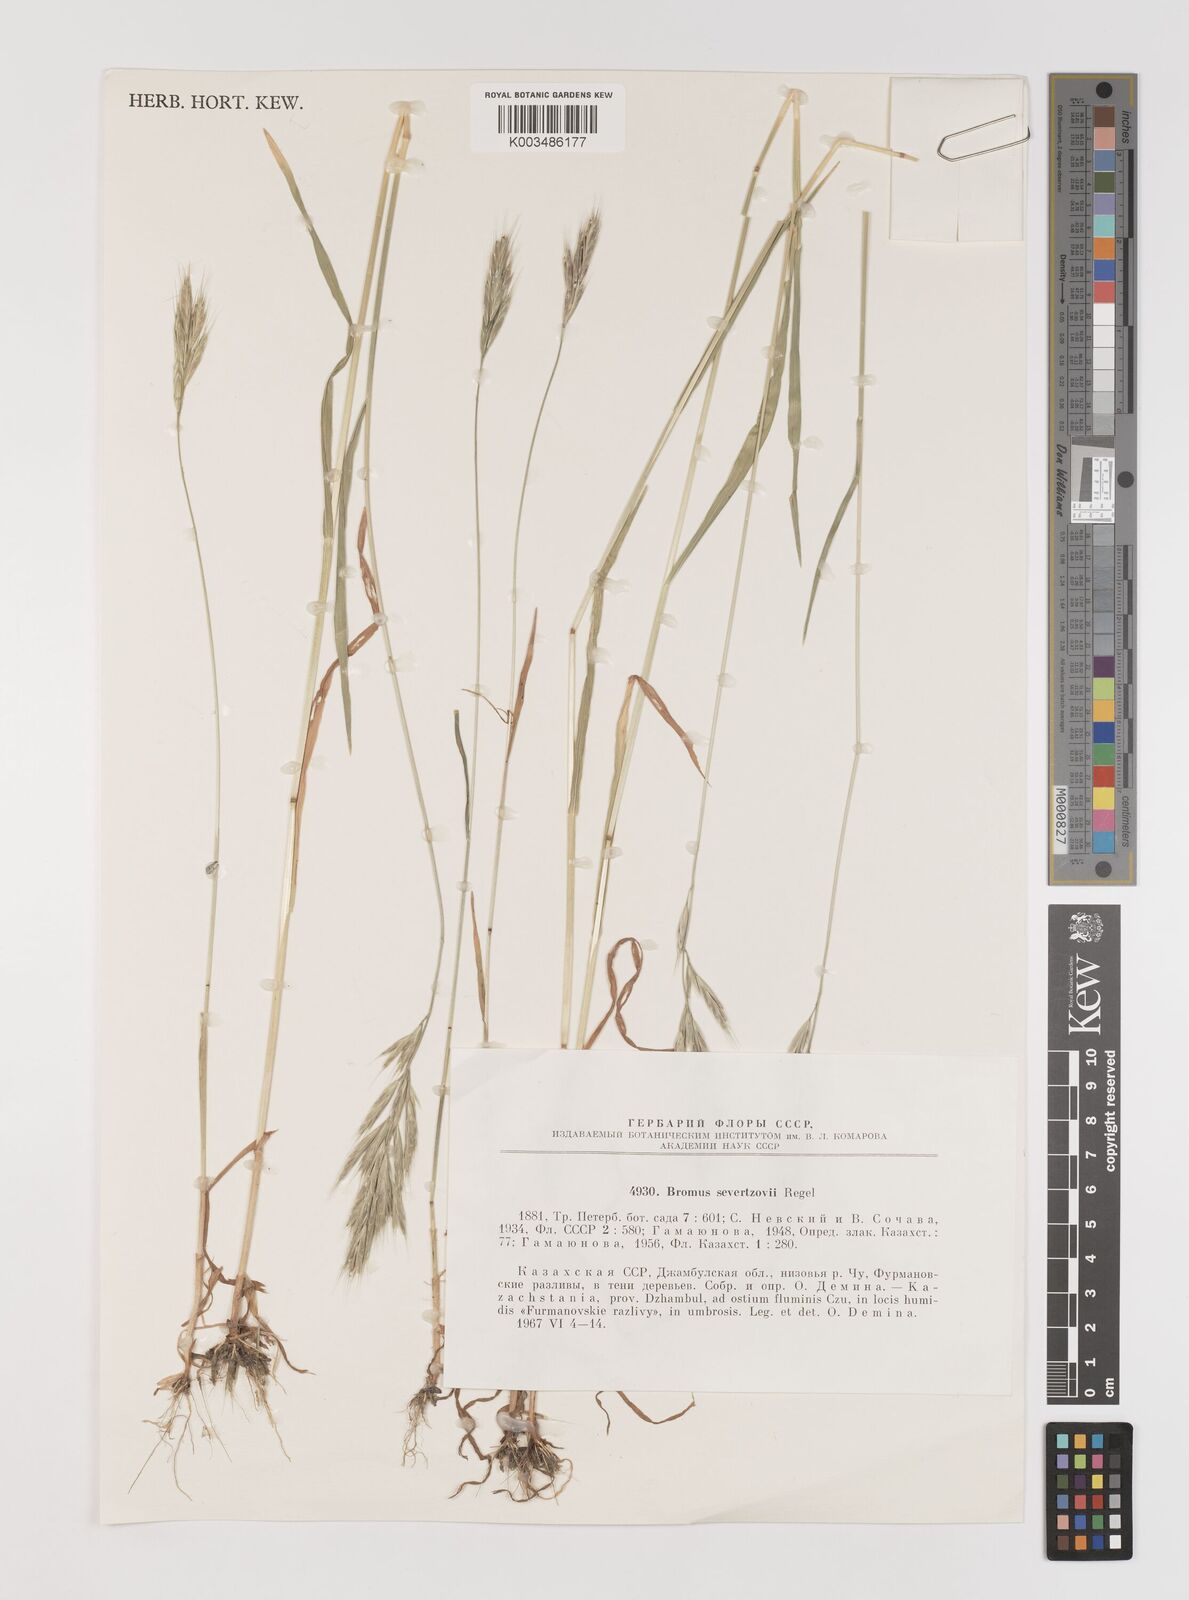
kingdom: Plantae
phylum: Tracheophyta
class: Liliopsida
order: Poales
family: Poaceae
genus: Bromus
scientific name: Bromus sewerzowii
